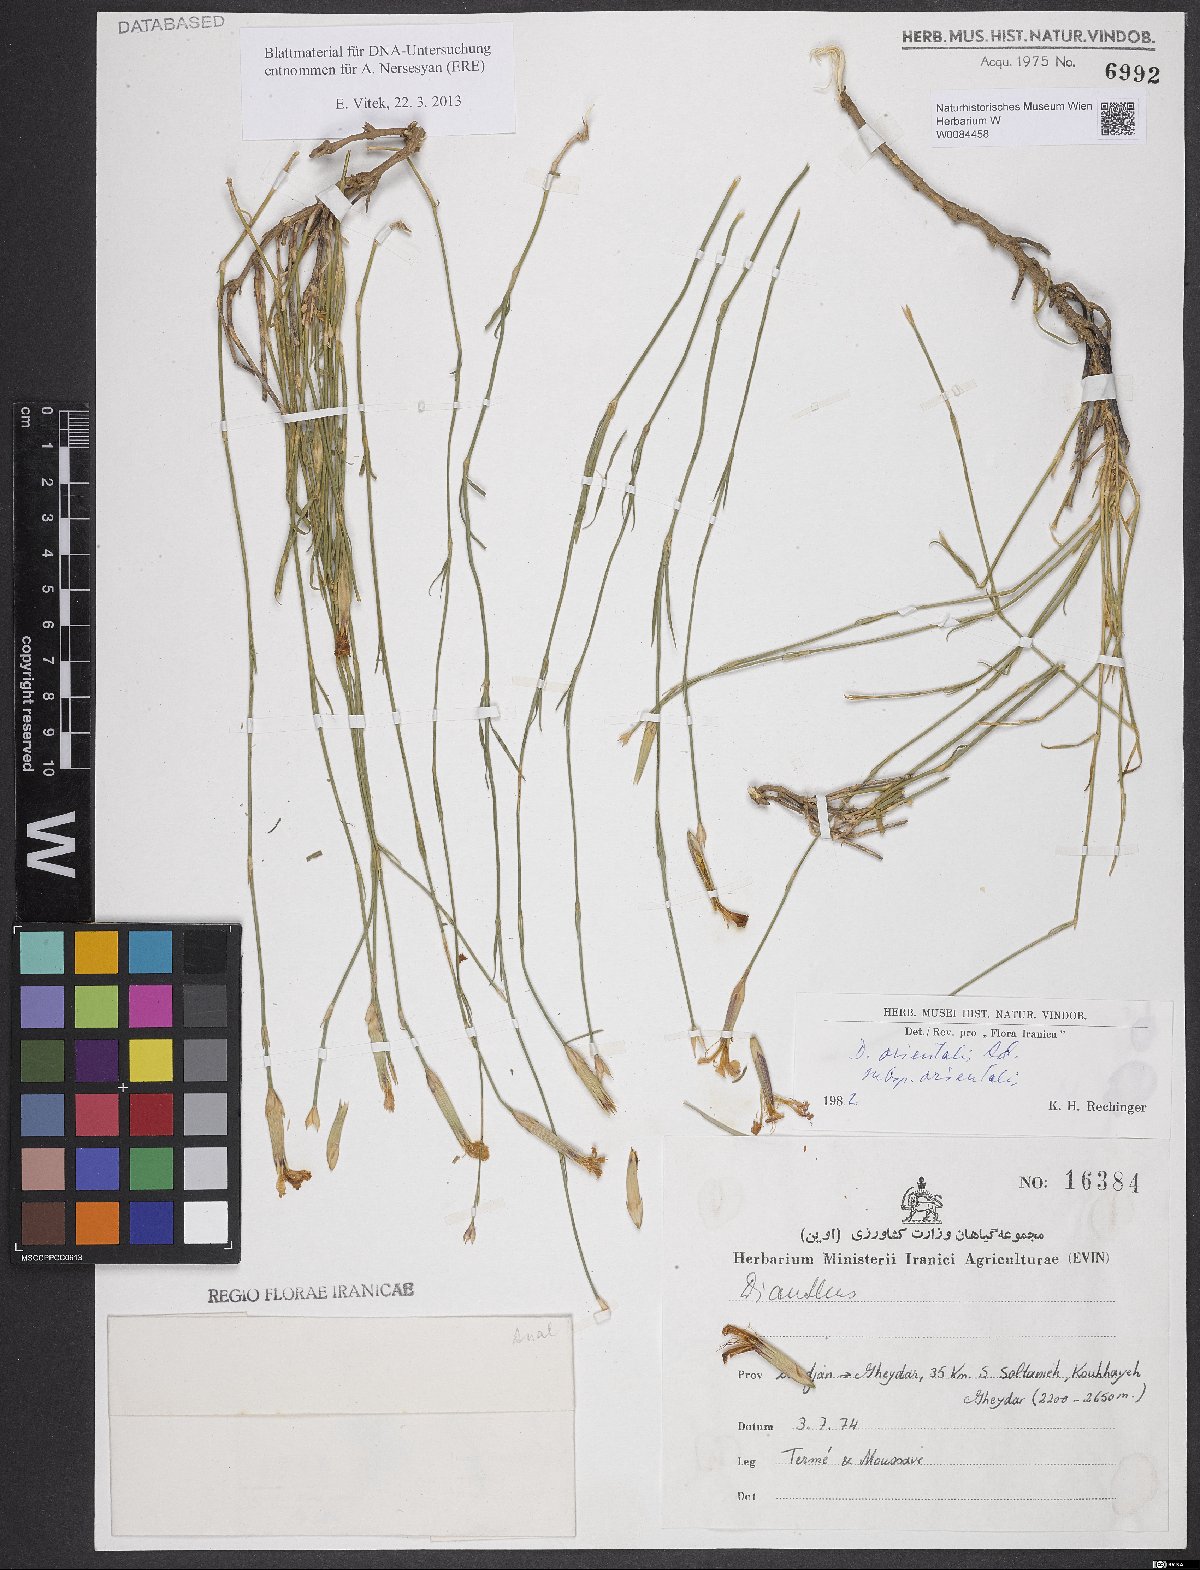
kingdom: Plantae
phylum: Tracheophyta
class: Magnoliopsida
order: Caryophyllales
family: Caryophyllaceae
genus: Dianthus
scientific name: Dianthus orientalis
